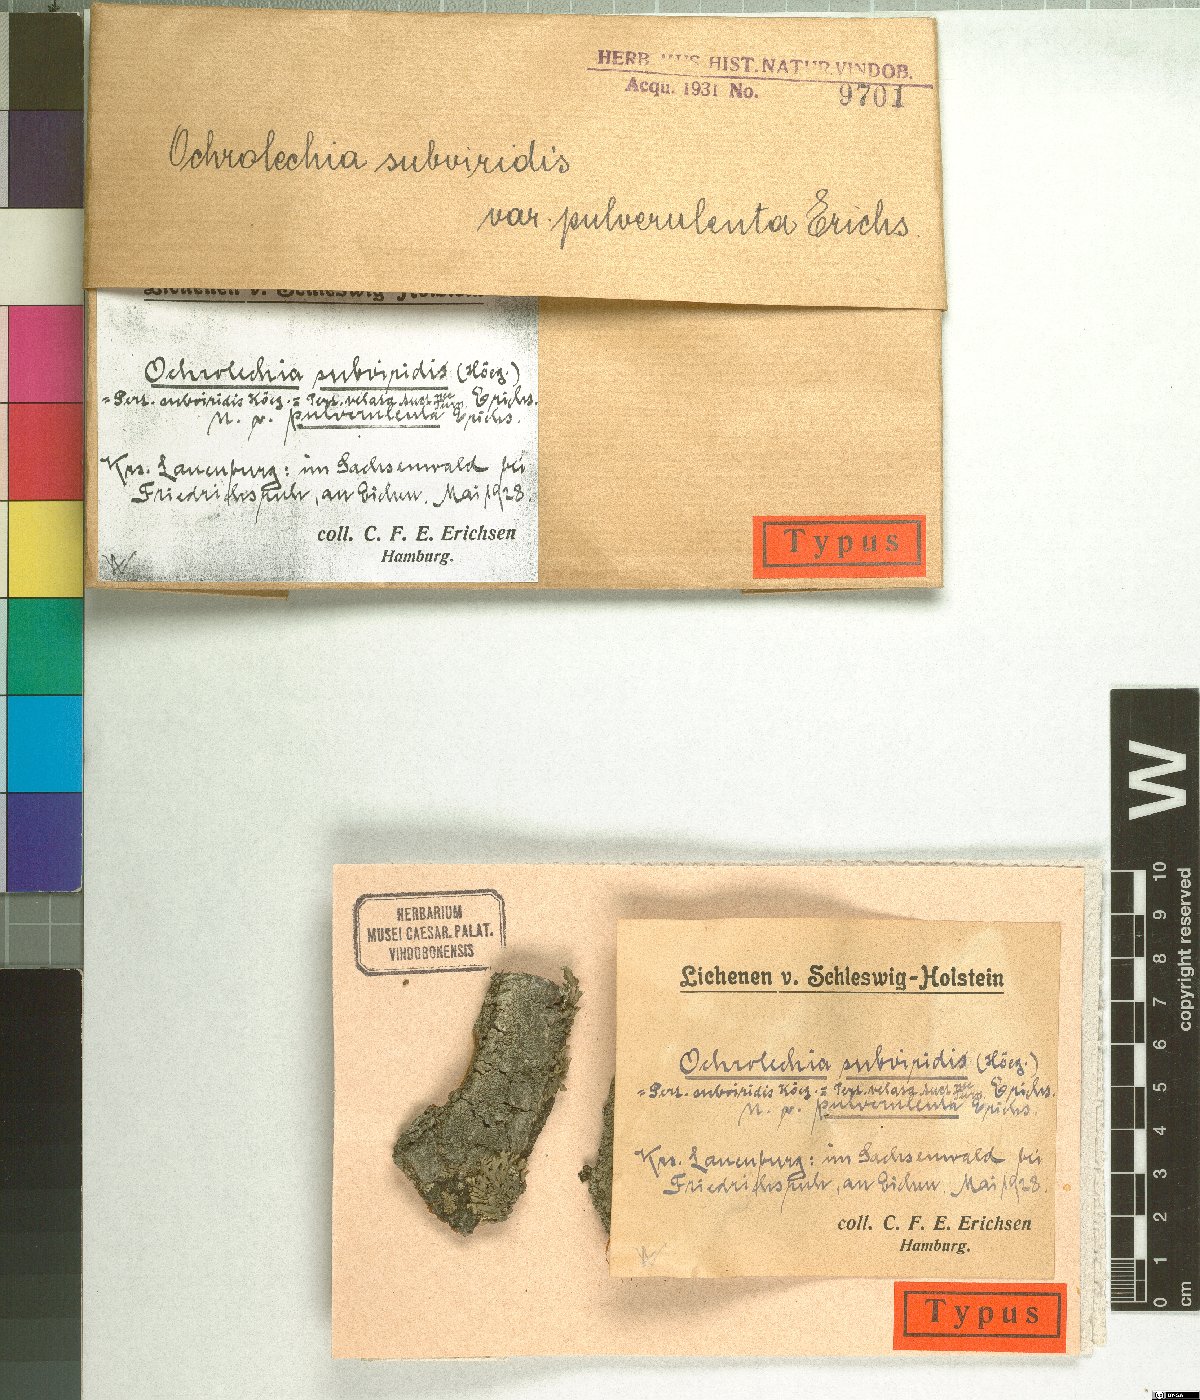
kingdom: Fungi
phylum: Ascomycota
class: Lecanoromycetes
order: Pertusariales
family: Ochrolechiaceae
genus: Ochrolechia
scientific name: Ochrolechia subviridis
